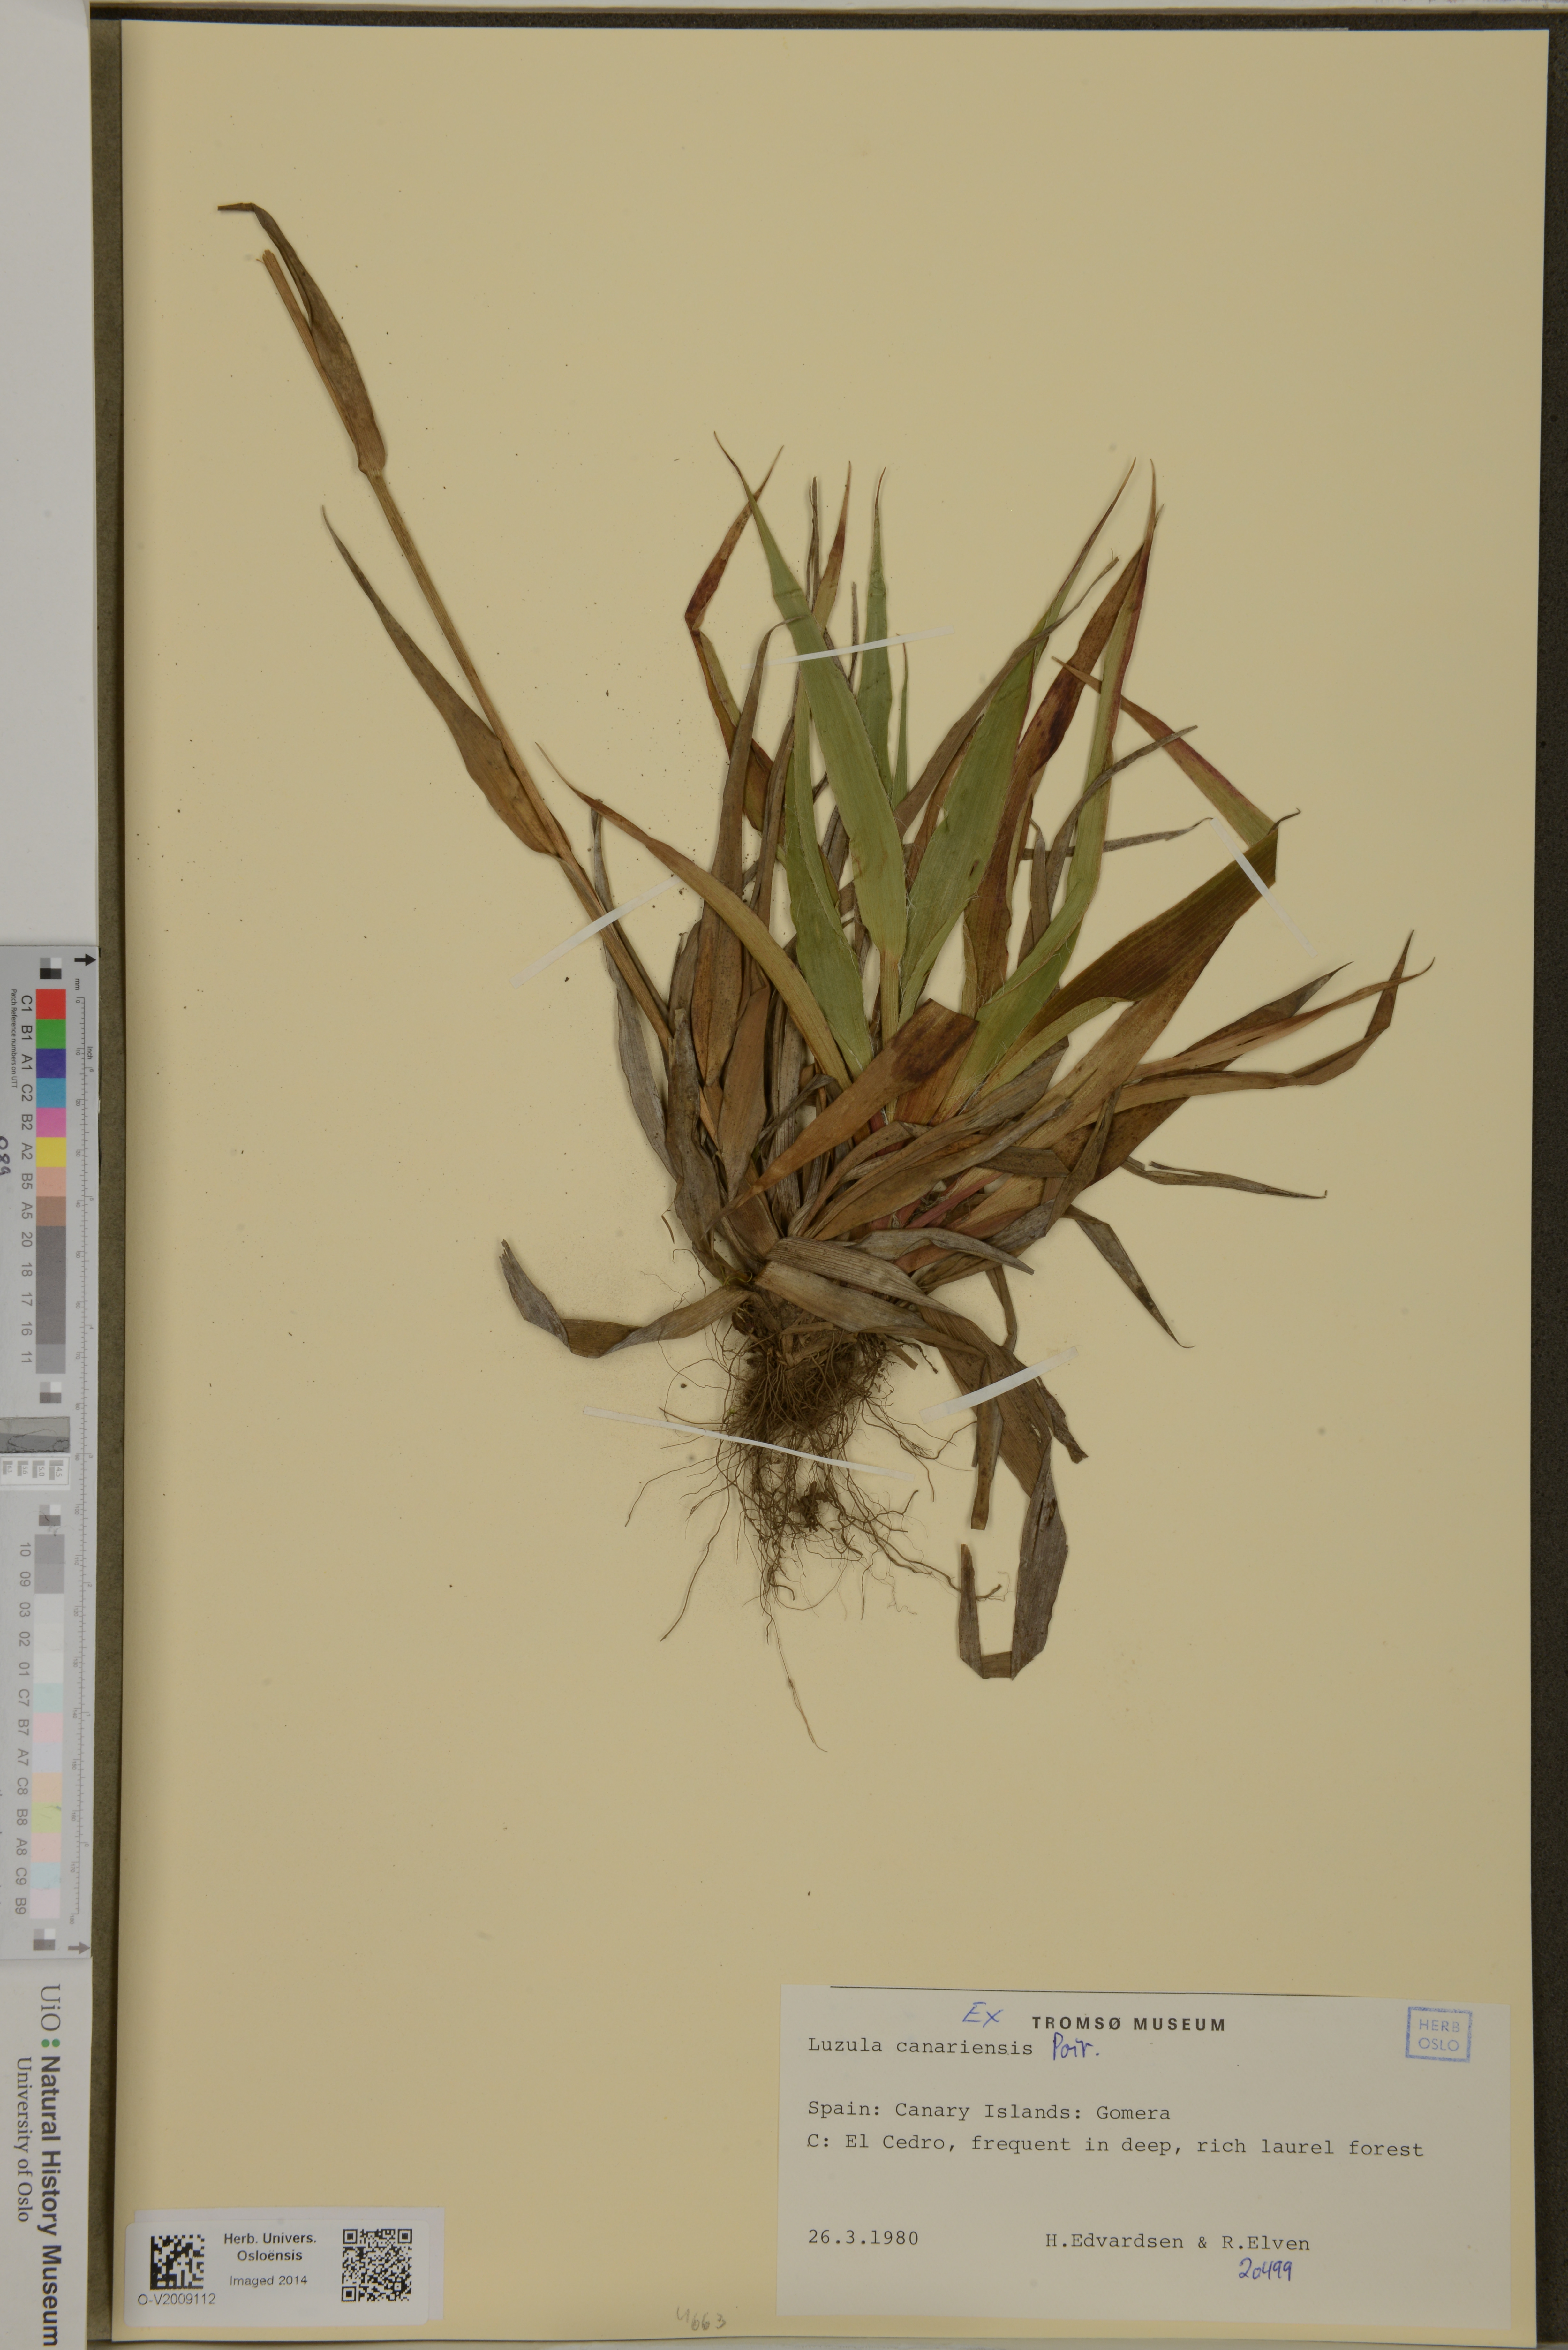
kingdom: Plantae
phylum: Tracheophyta
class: Liliopsida
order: Poales
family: Juncaceae
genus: Luzula
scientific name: Luzula canariensis
